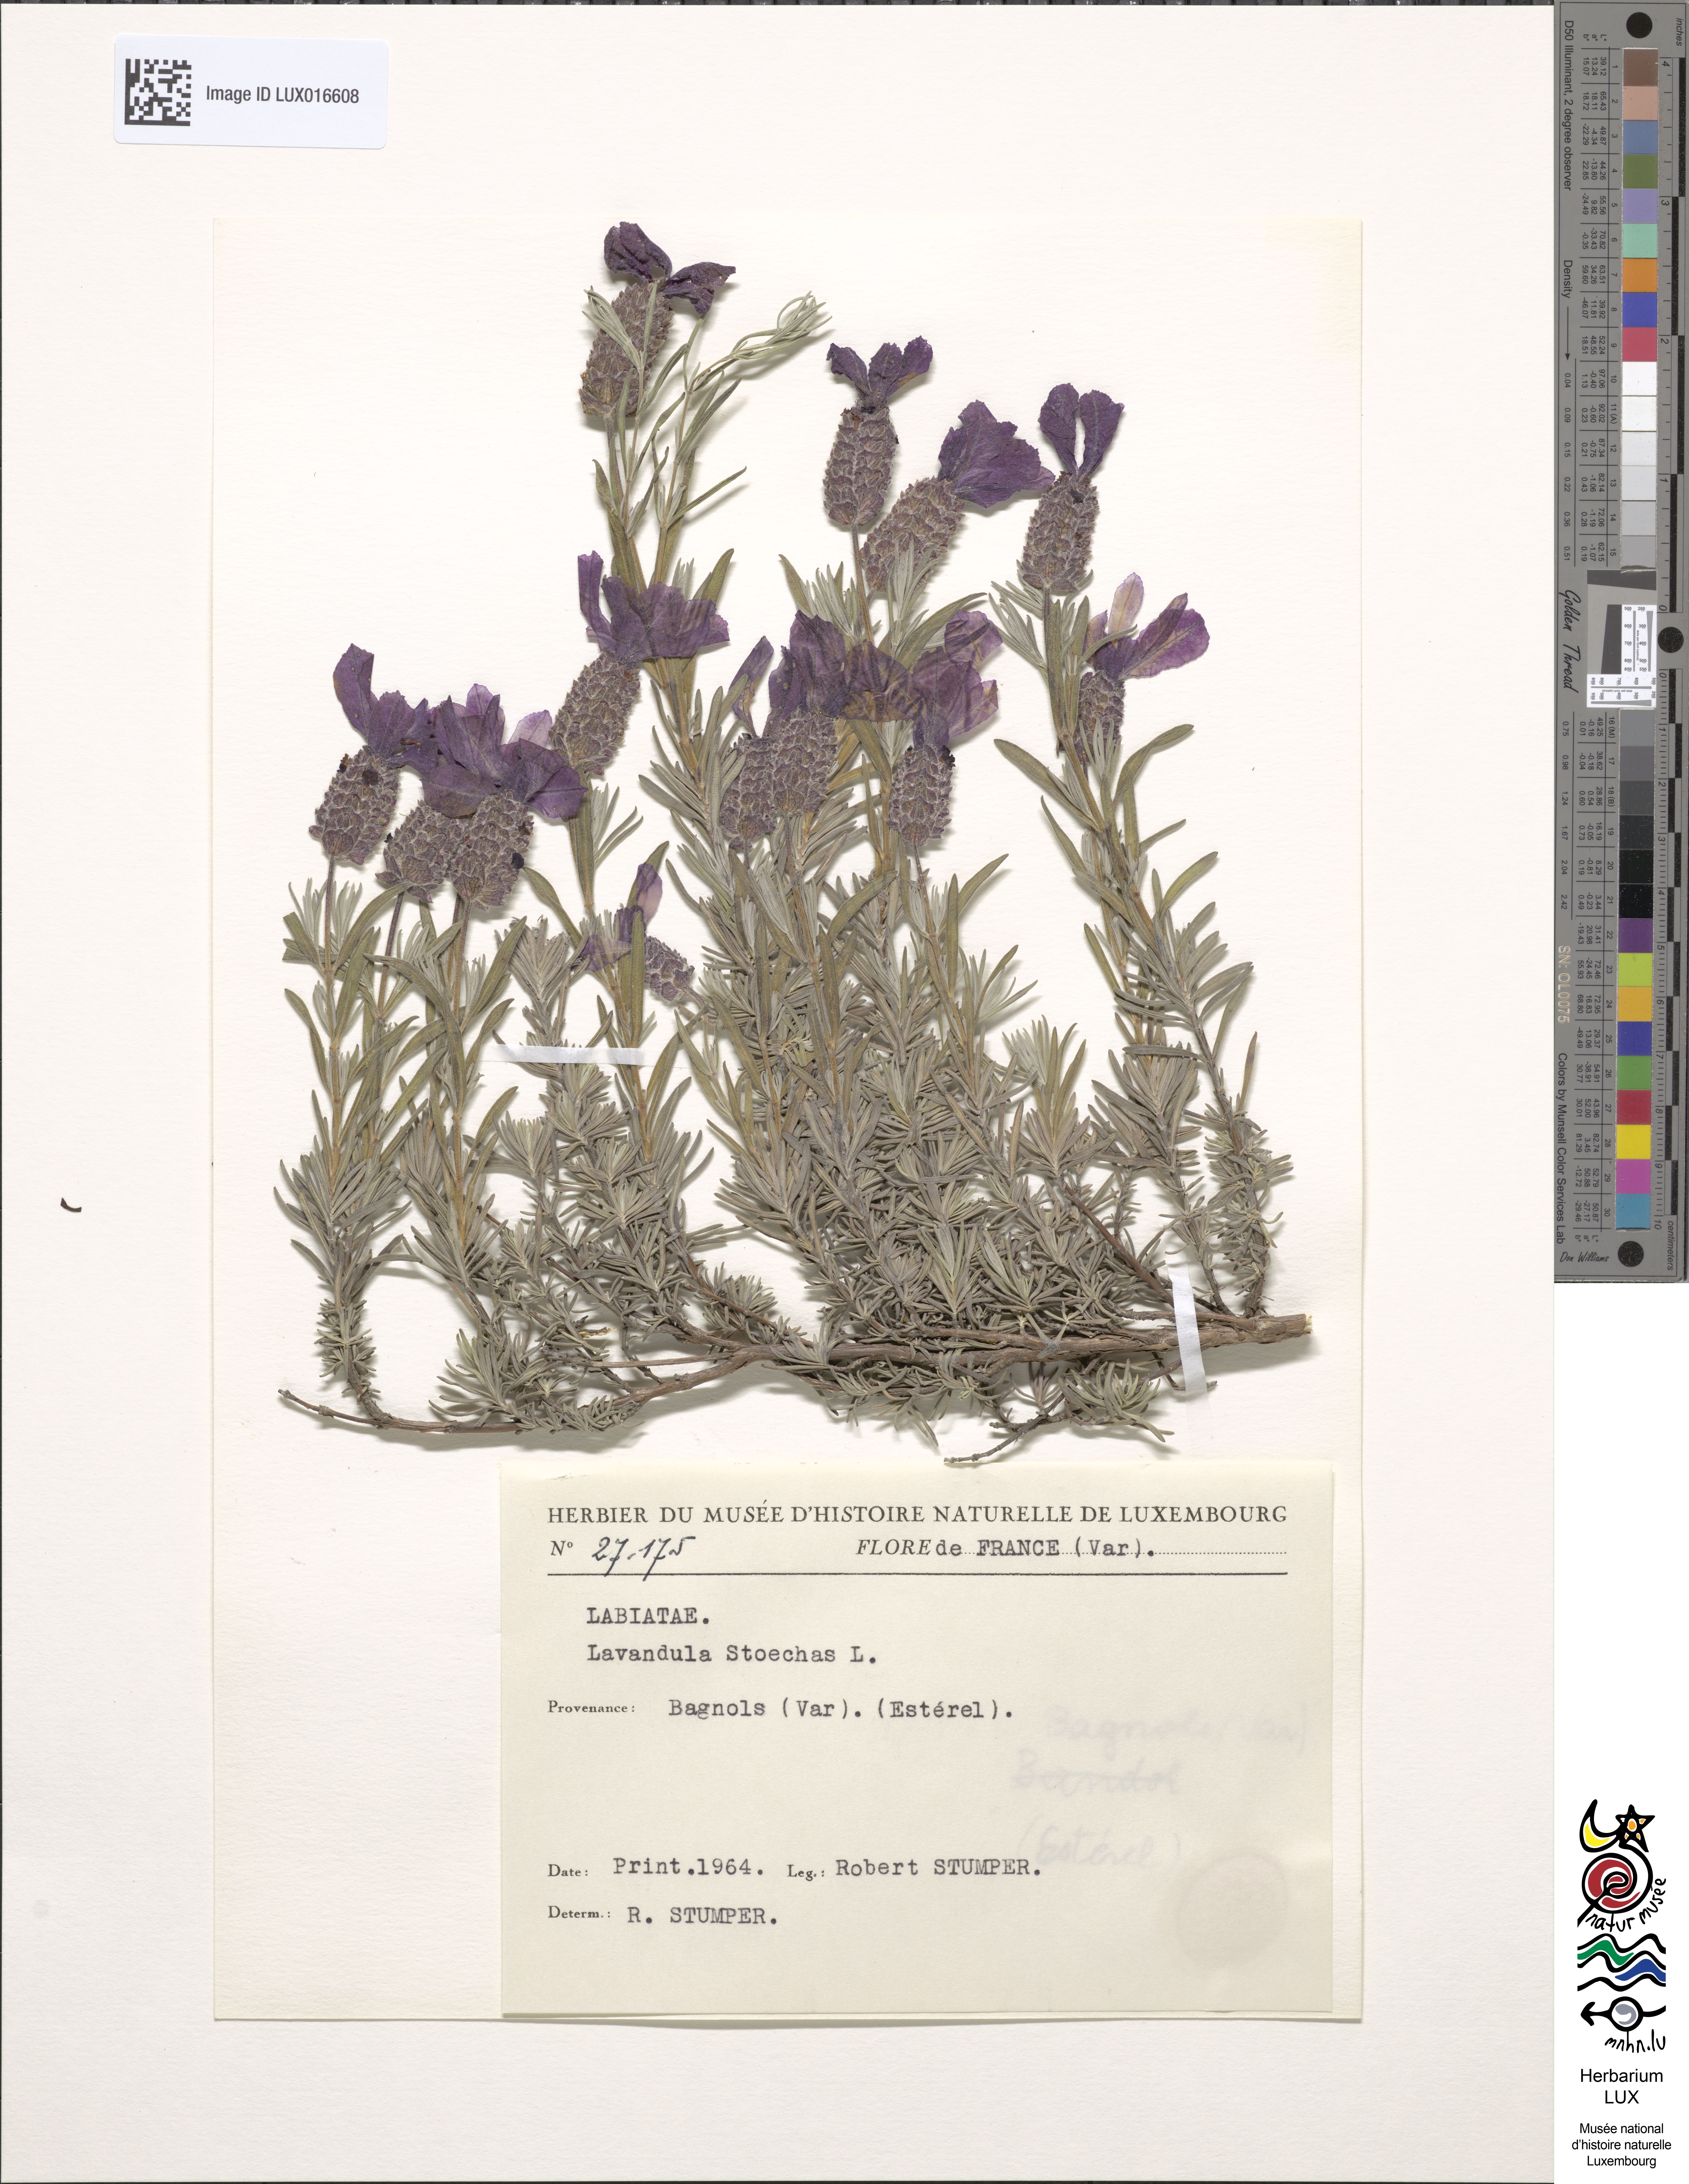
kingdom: Plantae
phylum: Tracheophyta
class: Magnoliopsida
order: Lamiales
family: Lamiaceae
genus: Lavandula
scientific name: Lavandula stoechas
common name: French lavender
